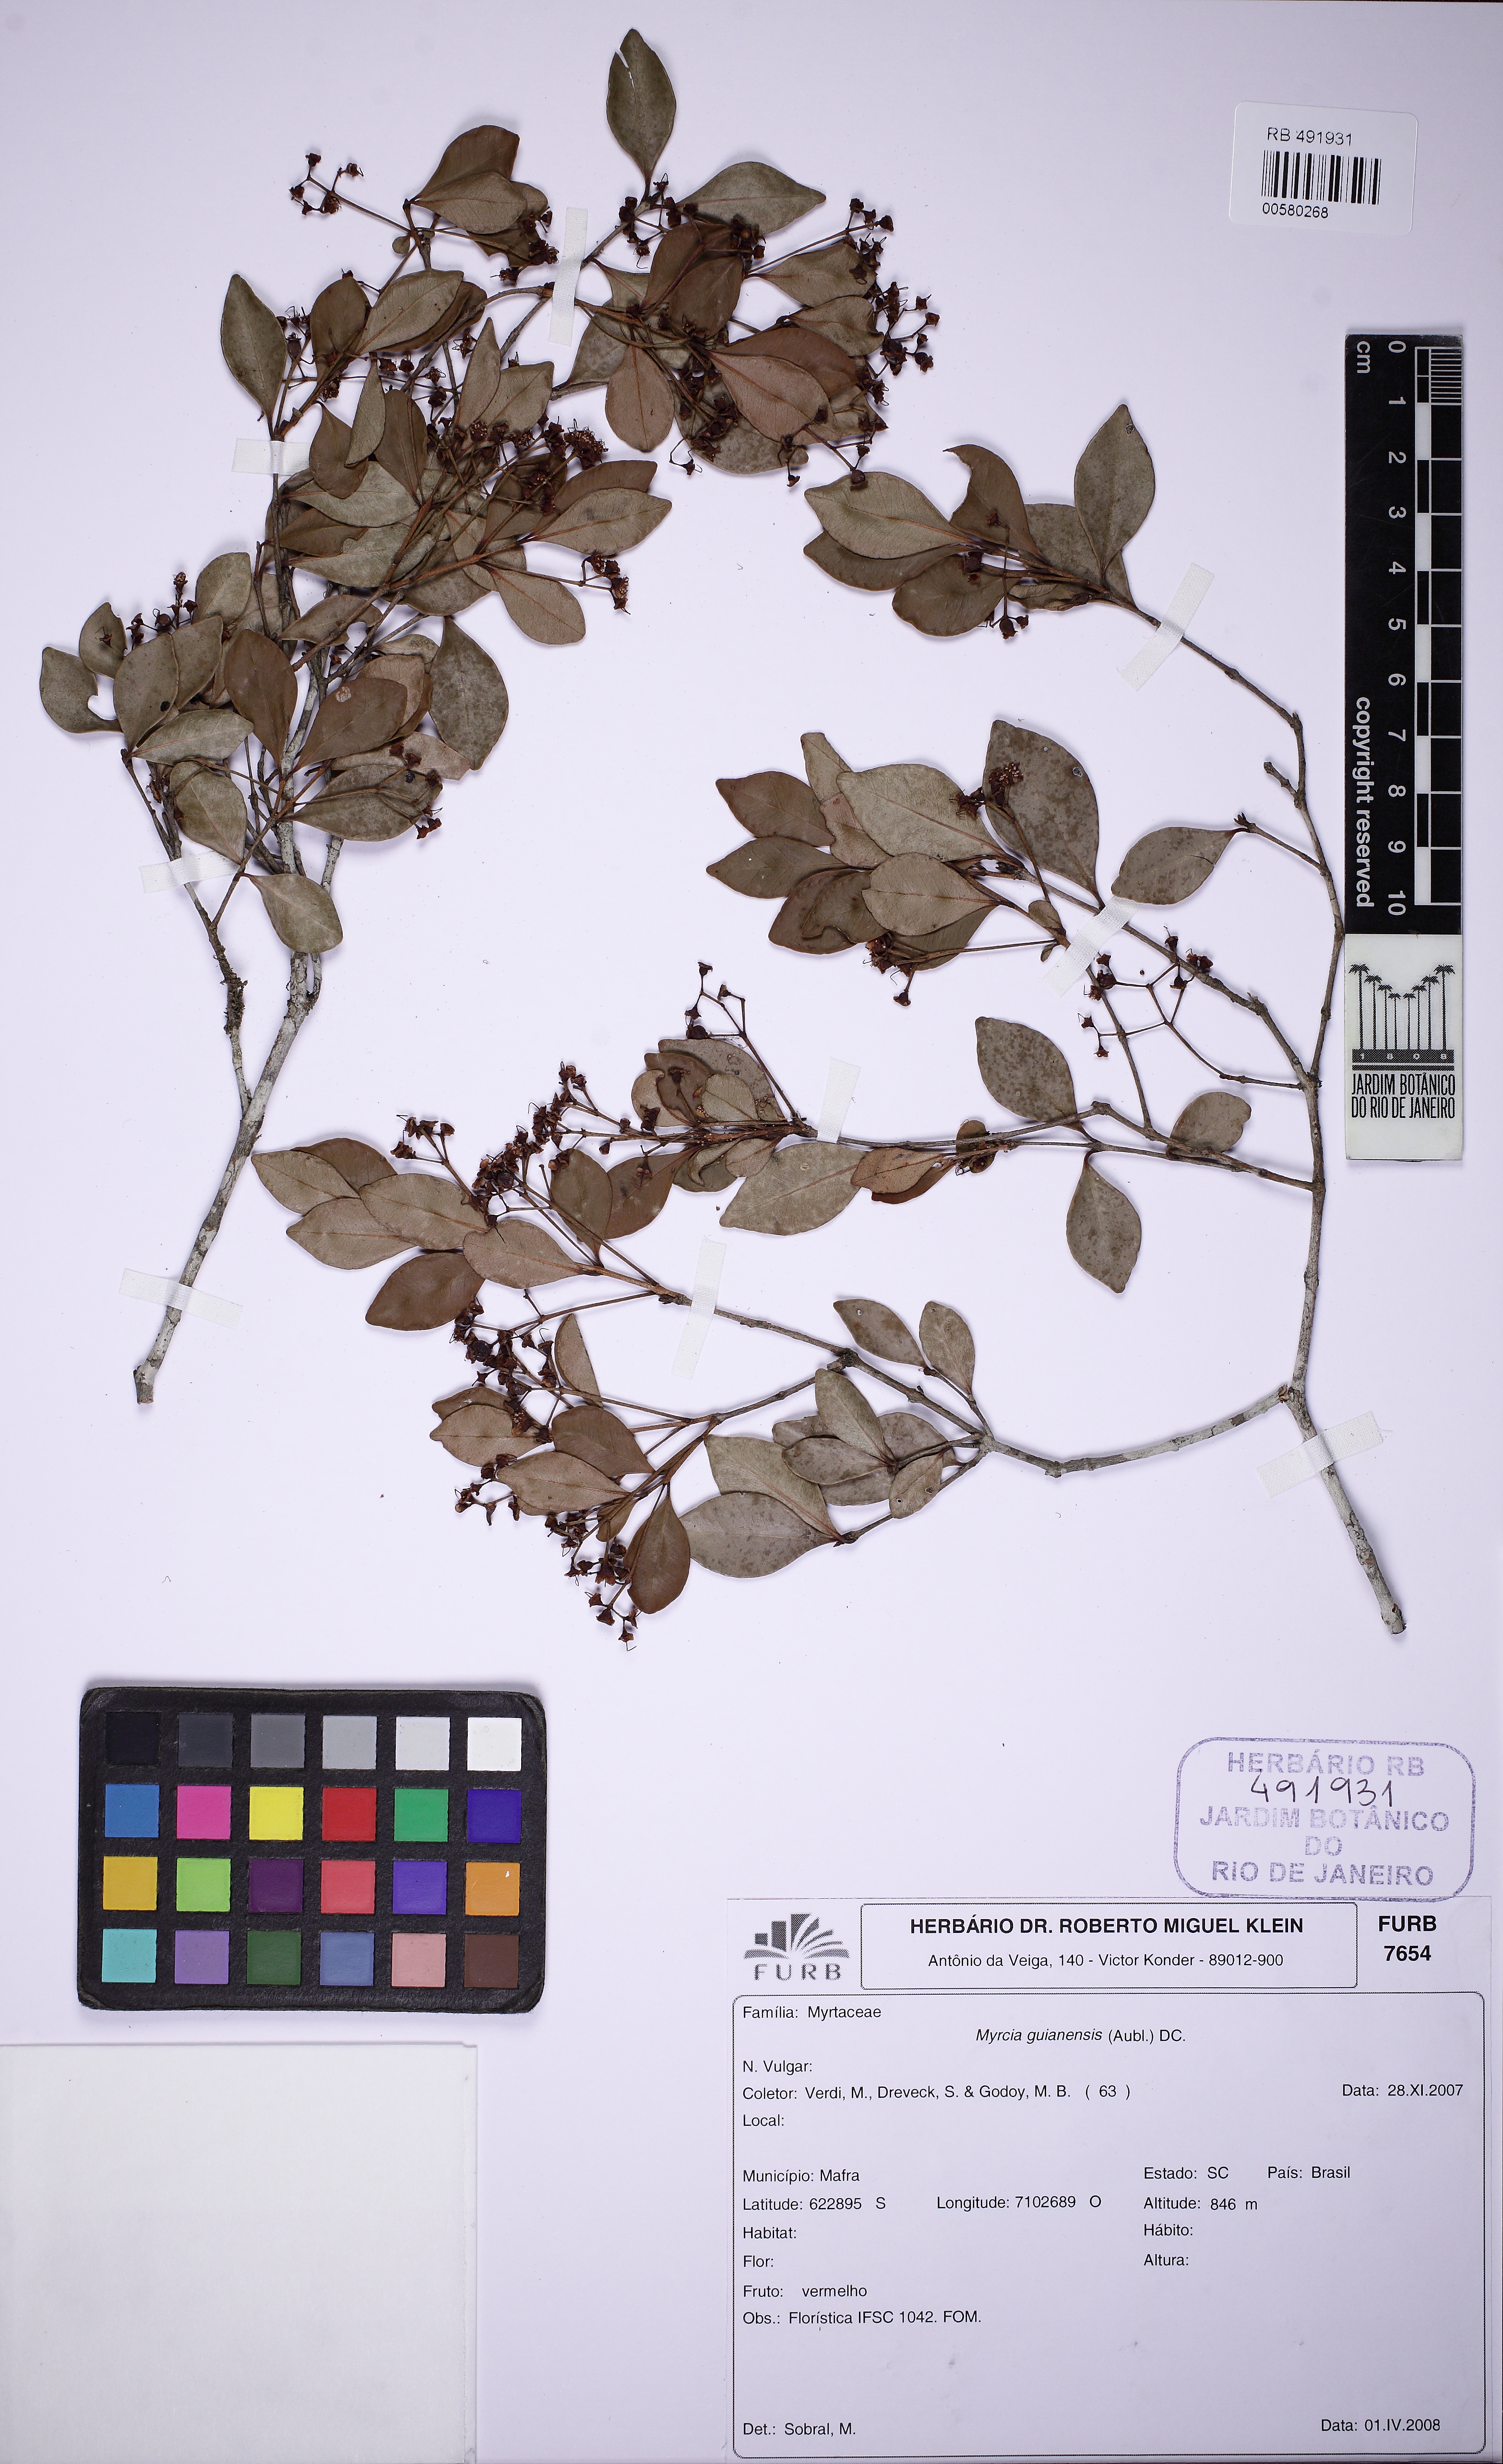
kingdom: Plantae
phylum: Tracheophyta
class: Magnoliopsida
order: Myrtales
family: Myrtaceae
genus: Myrcia
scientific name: Myrcia guianensis
